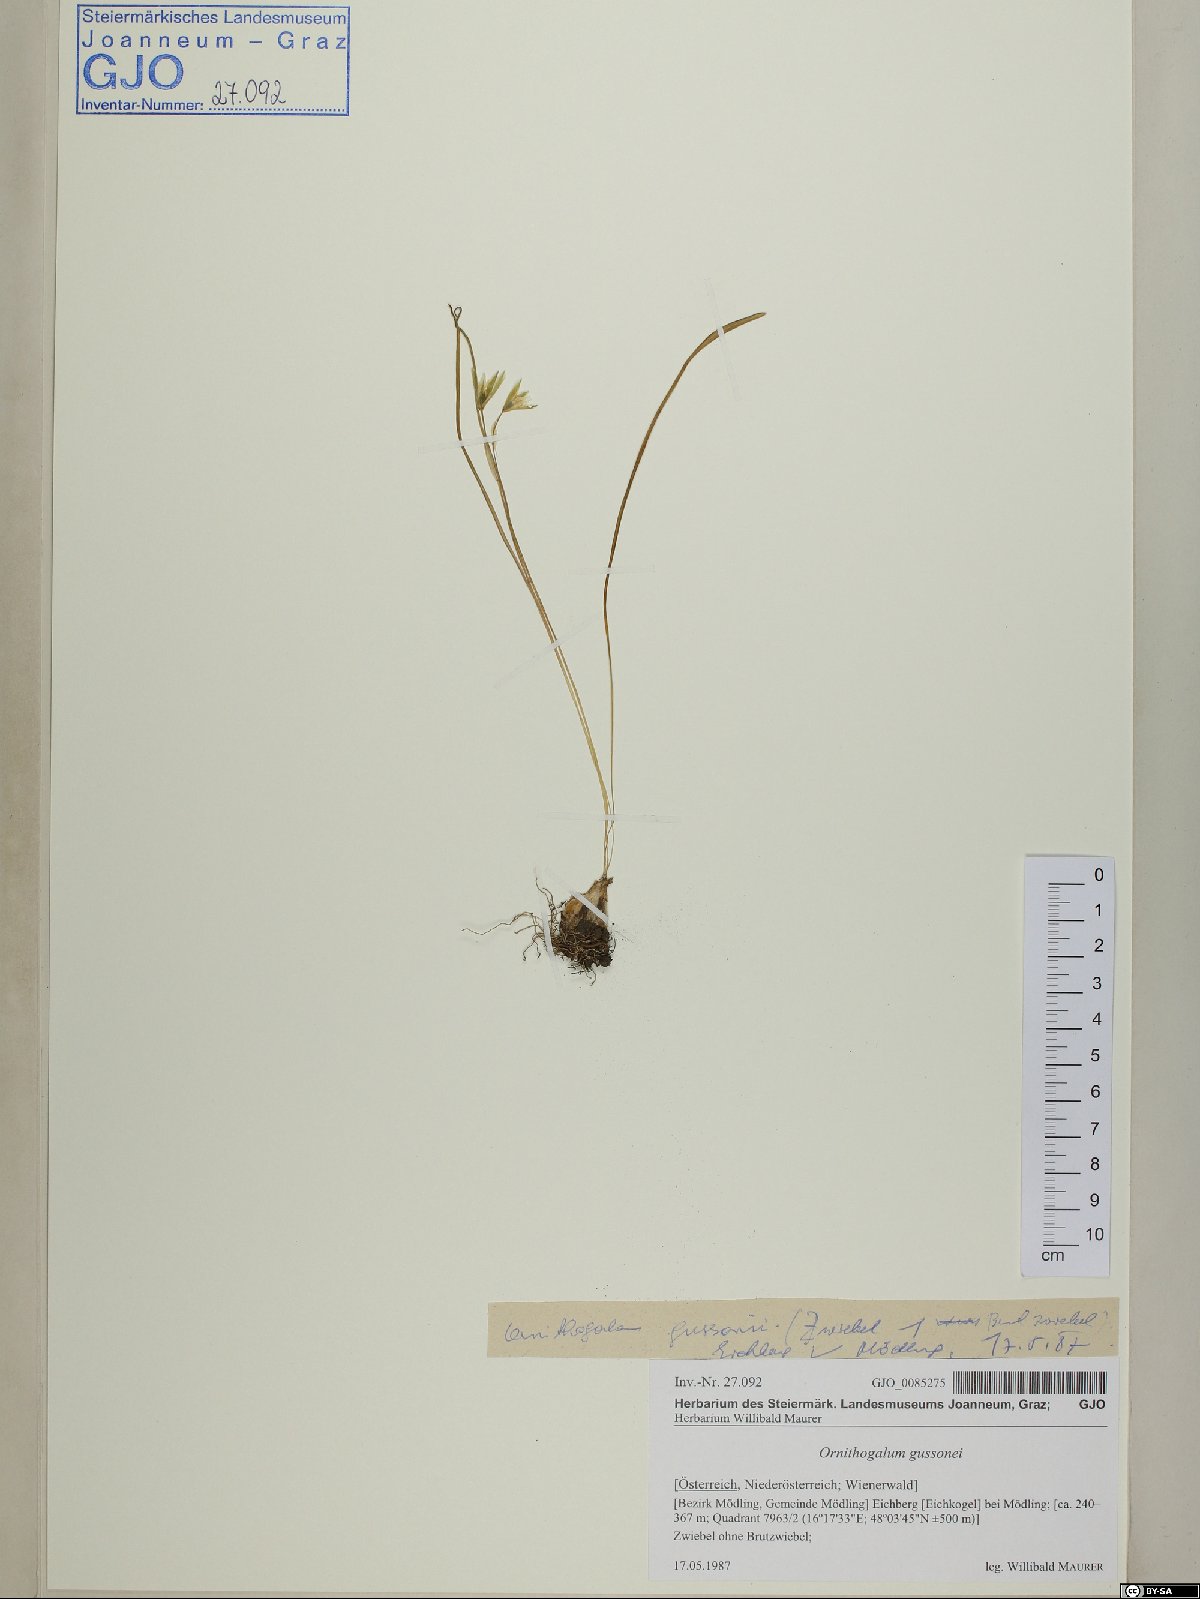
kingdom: Plantae
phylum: Tracheophyta
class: Liliopsida
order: Asparagales
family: Asparagaceae
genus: Ornithogalum
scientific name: Ornithogalum gussonei
